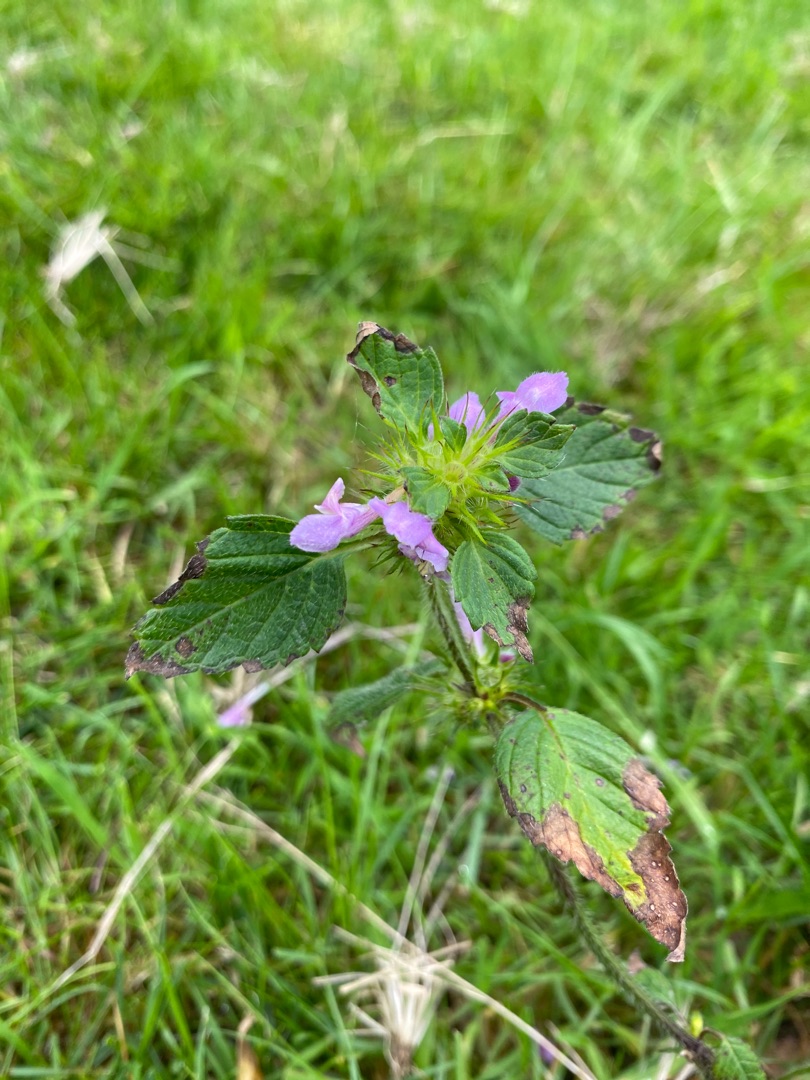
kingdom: Plantae
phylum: Tracheophyta
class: Magnoliopsida
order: Lamiales
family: Lamiaceae
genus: Galeopsis
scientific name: Galeopsis
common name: Hanekroslægten
